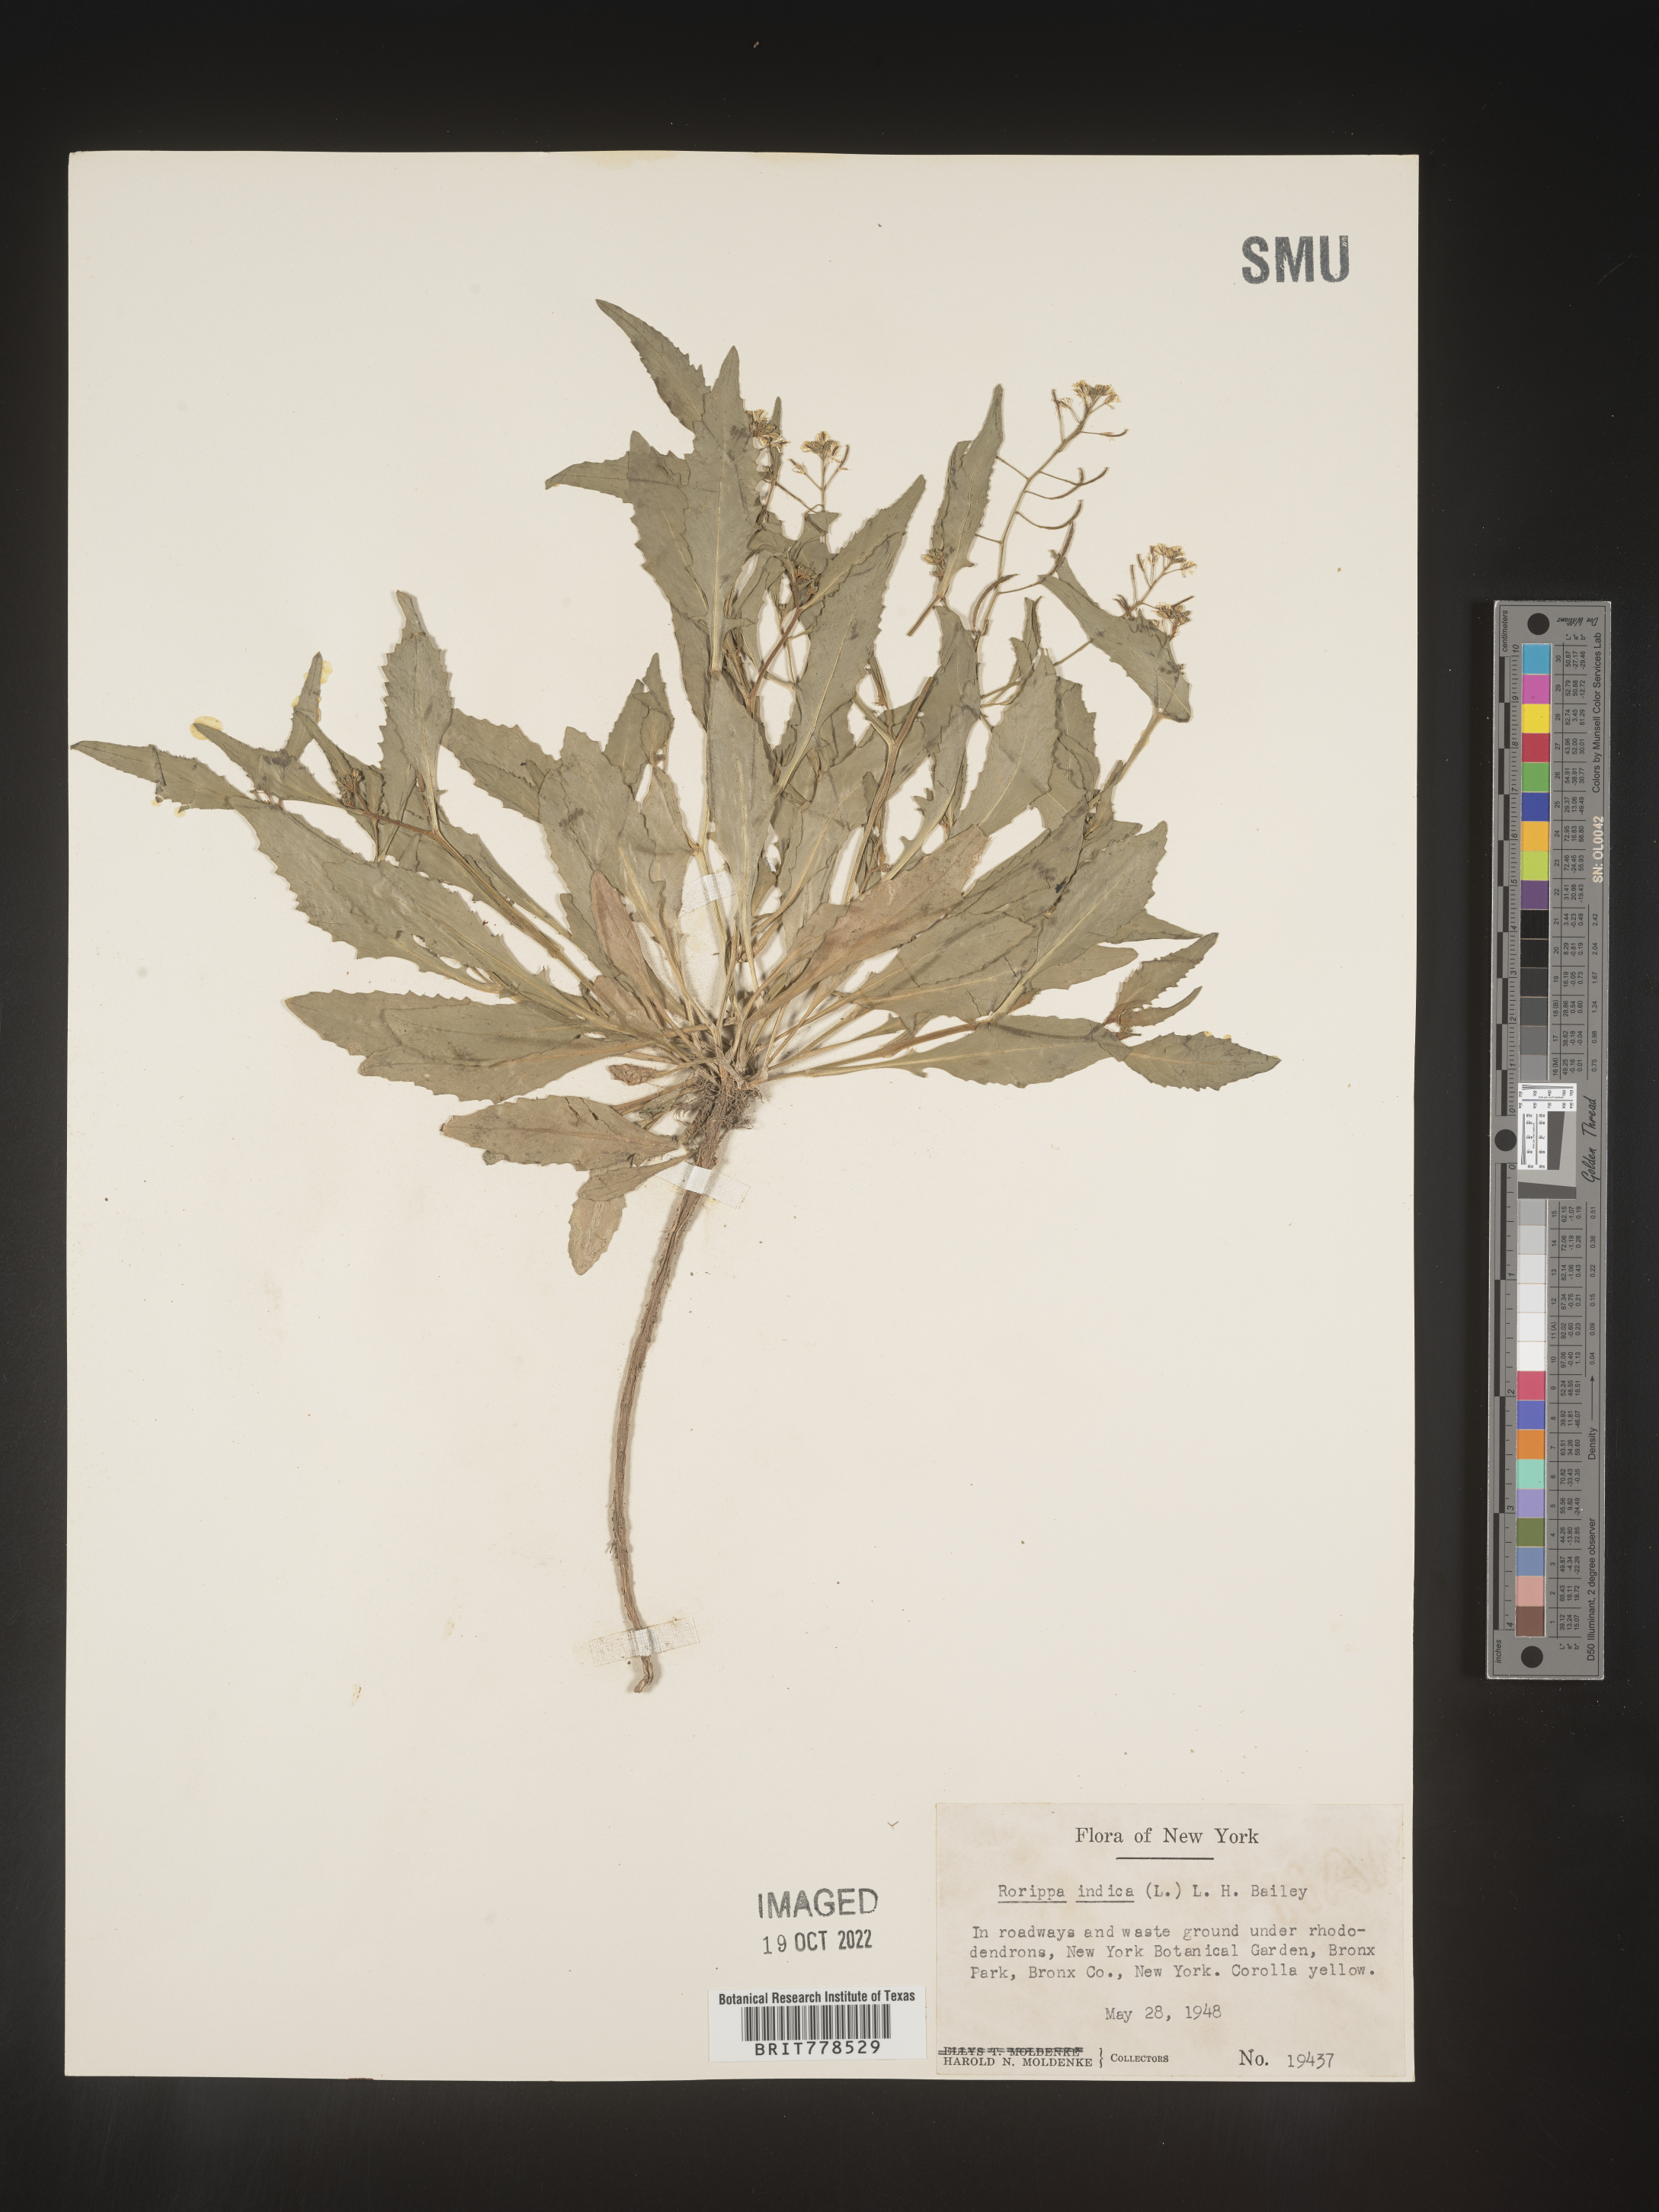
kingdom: Plantae
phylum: Tracheophyta
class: Magnoliopsida
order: Brassicales
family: Brassicaceae
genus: Rorippa
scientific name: Rorippa
